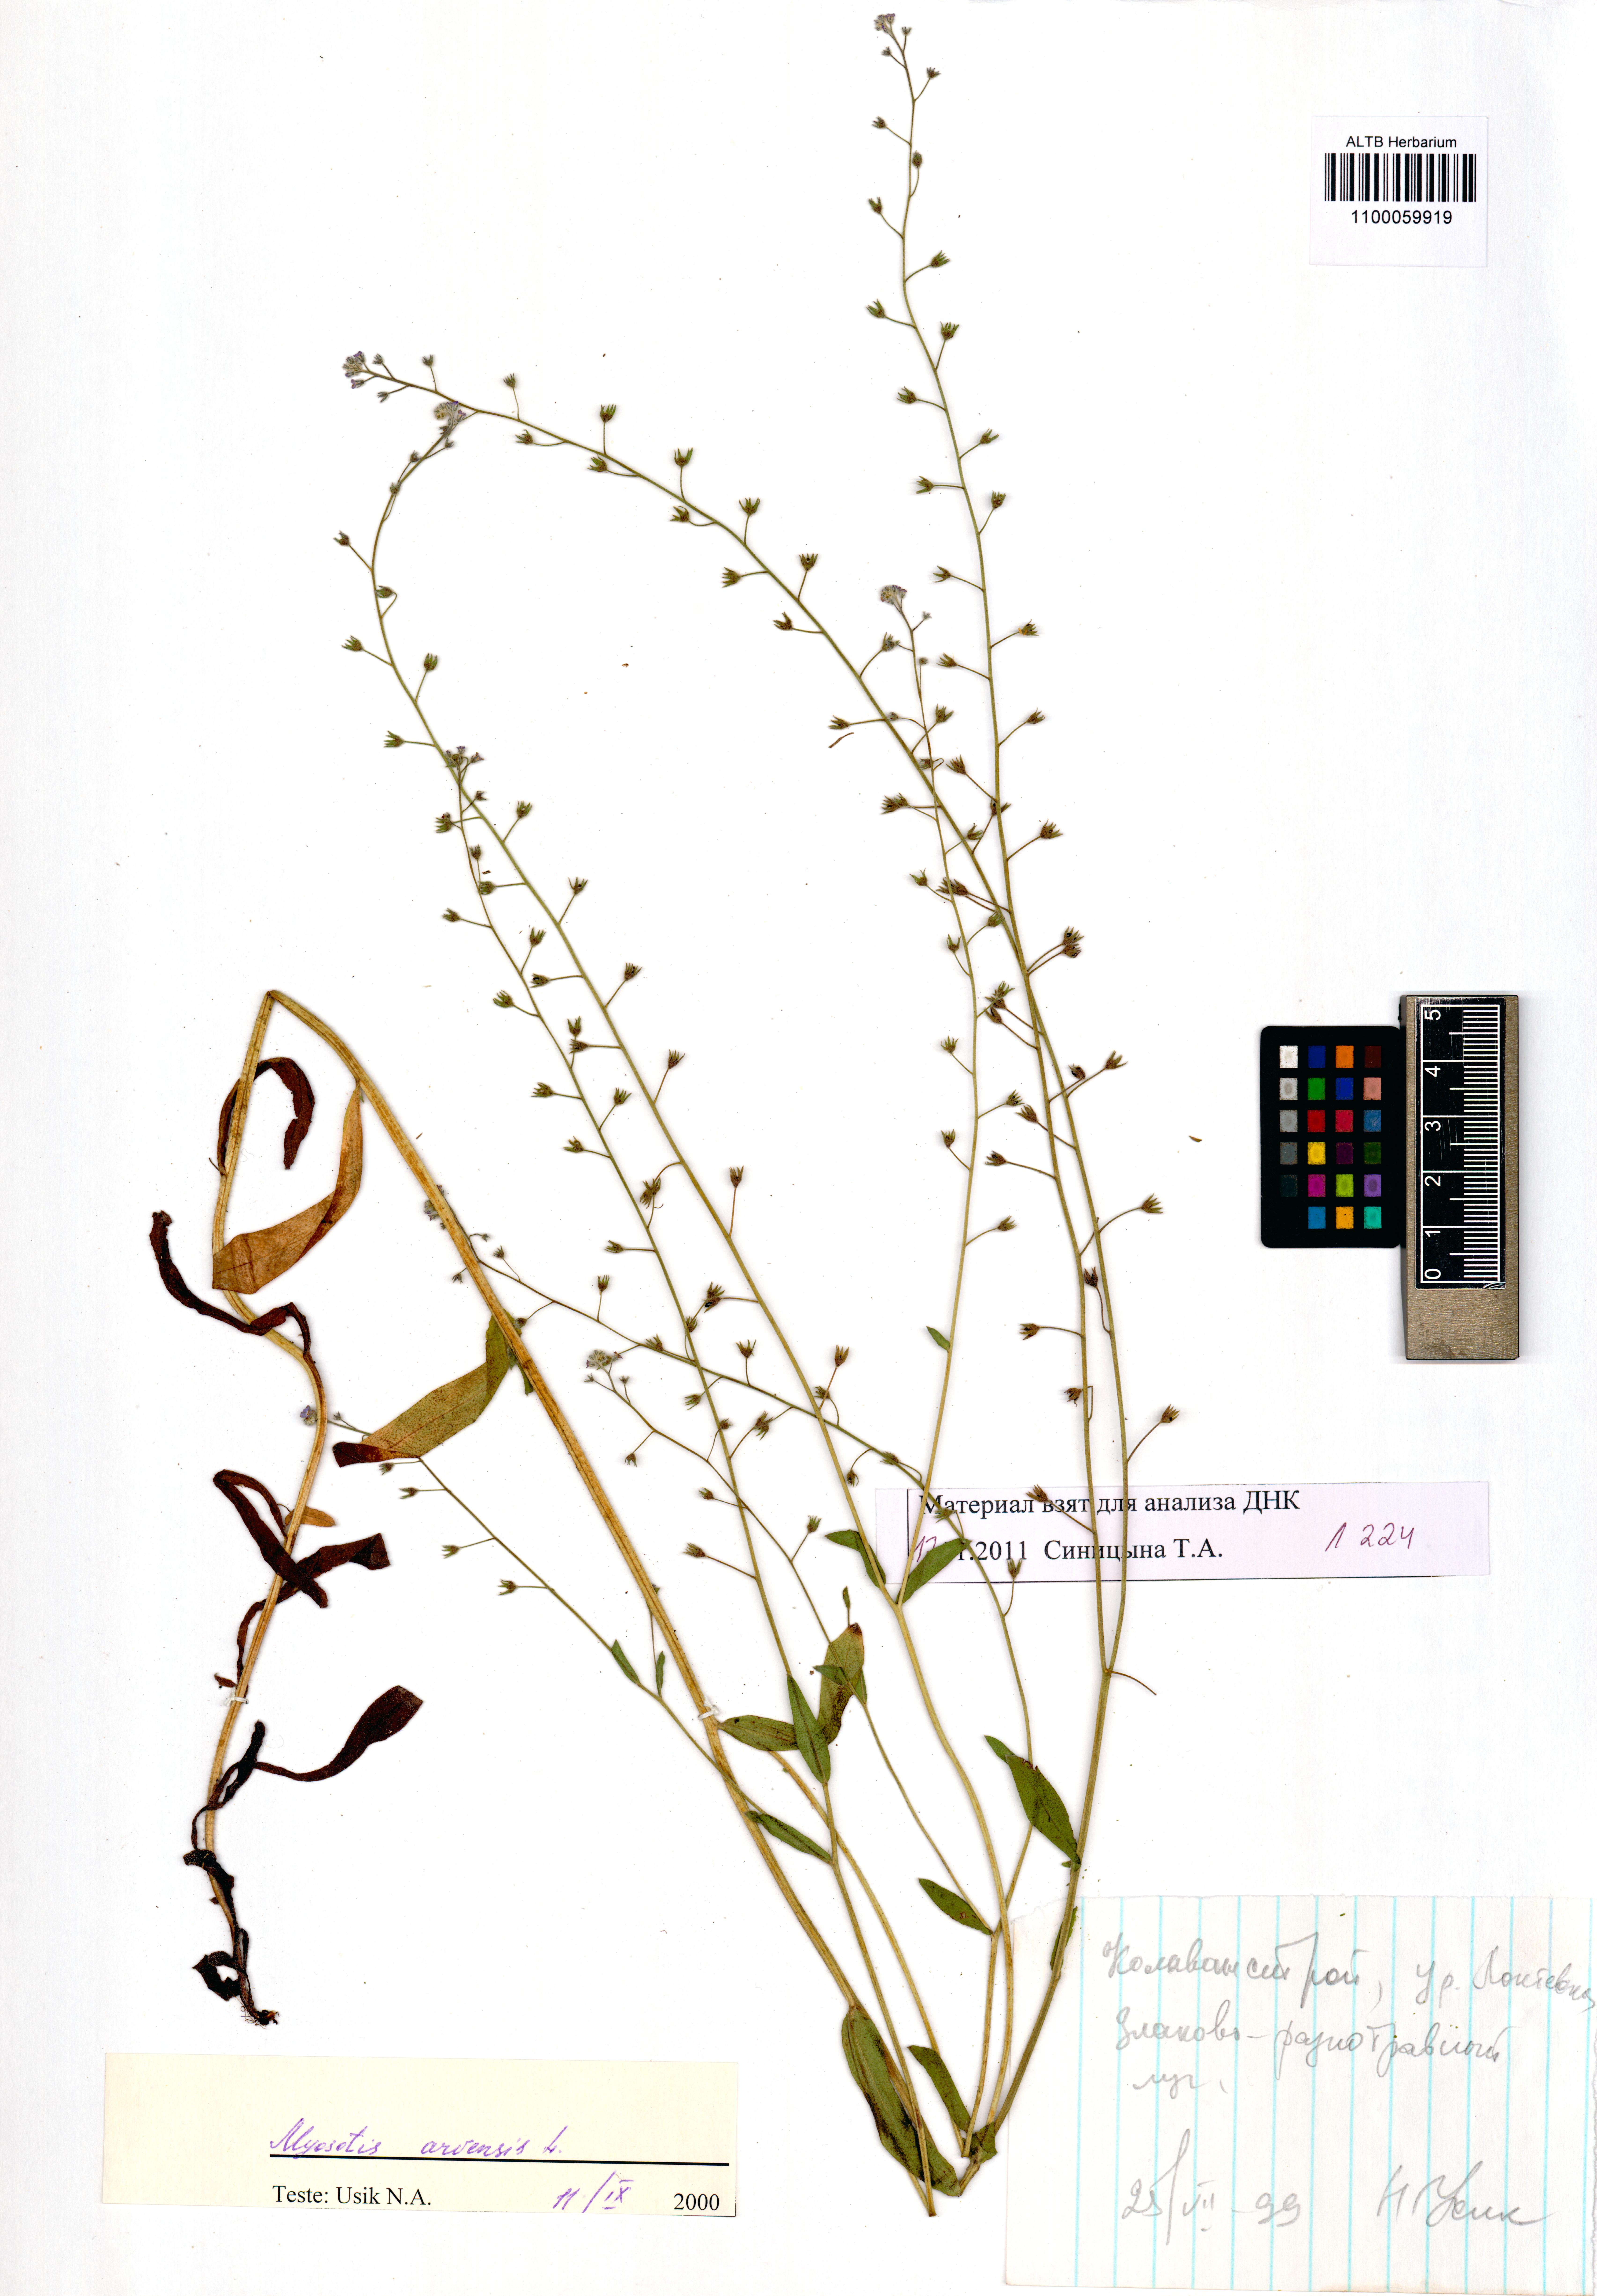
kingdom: Plantae
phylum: Tracheophyta
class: Magnoliopsida
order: Boraginales
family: Boraginaceae
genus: Myosotis
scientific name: Myosotis arvensis
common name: Field forget-me-not
